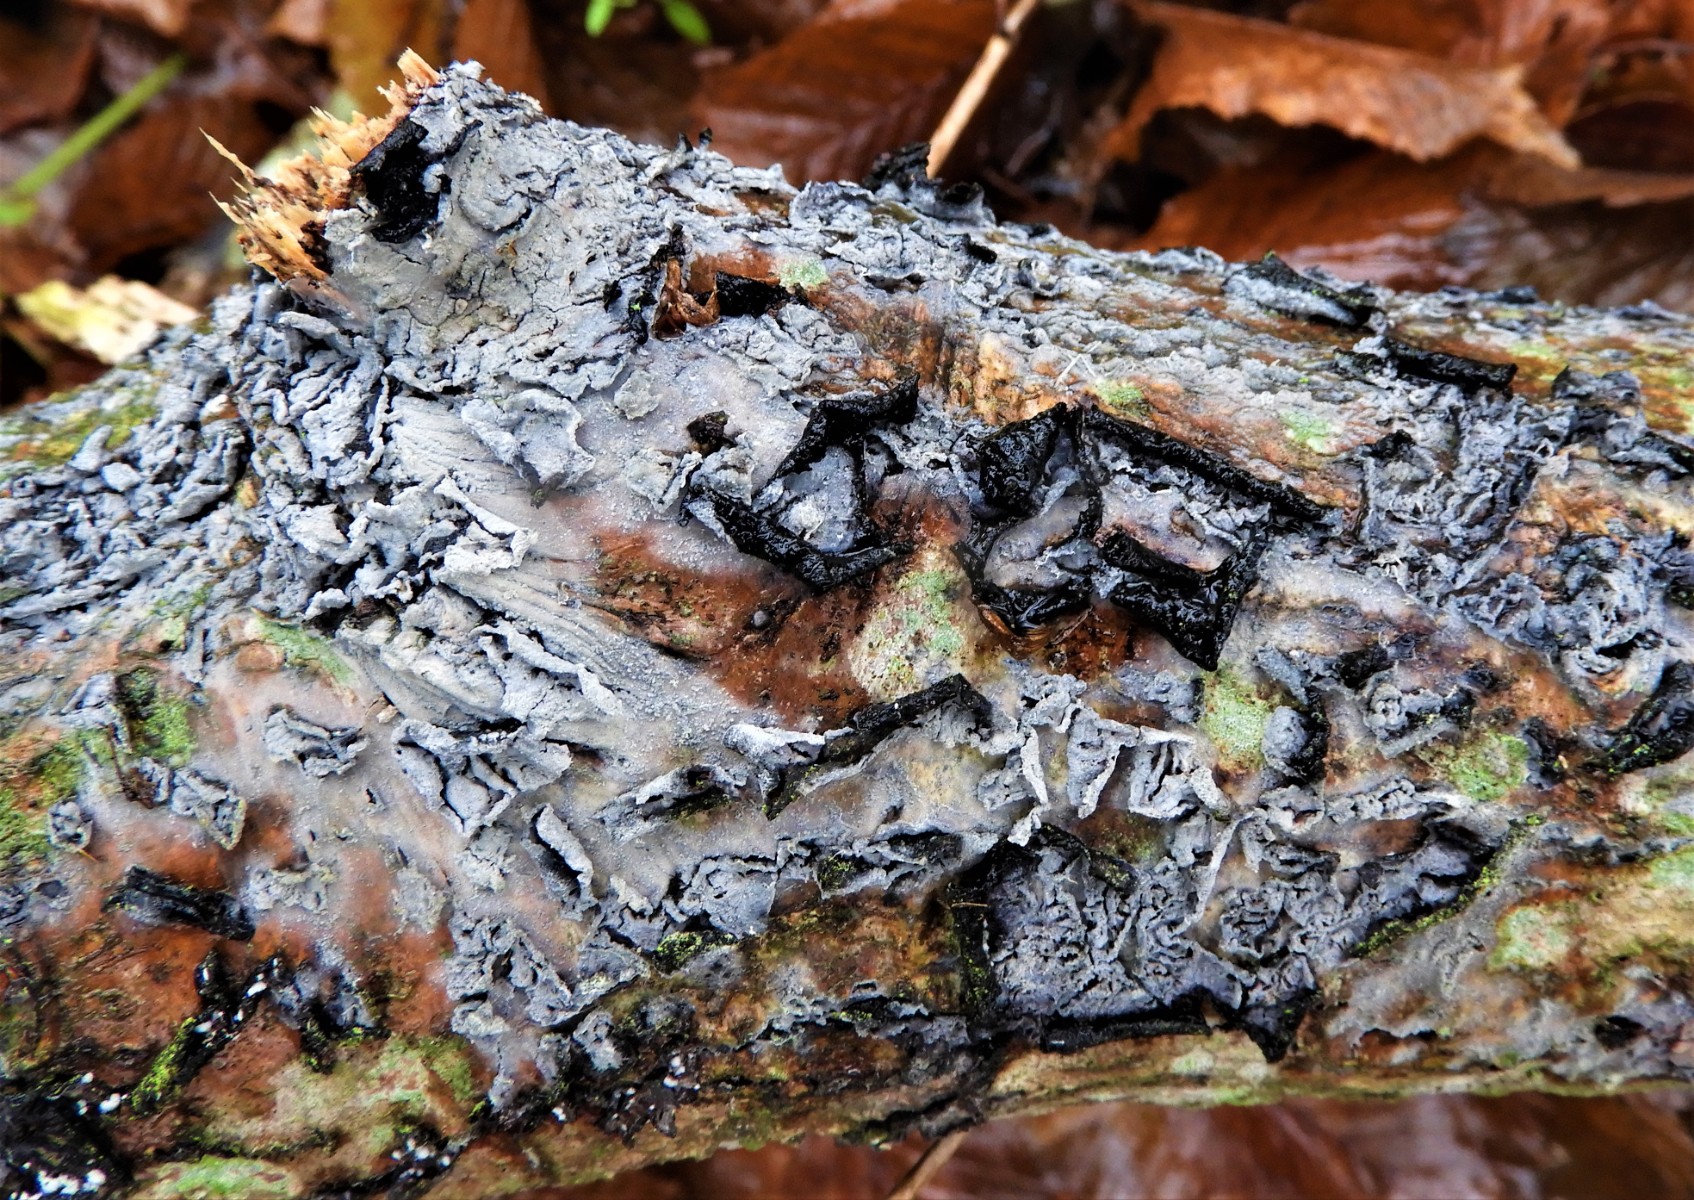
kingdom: Fungi
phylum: Basidiomycota
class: Agaricomycetes
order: Corticiales
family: Corticiaceae
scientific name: Corticiaceae
